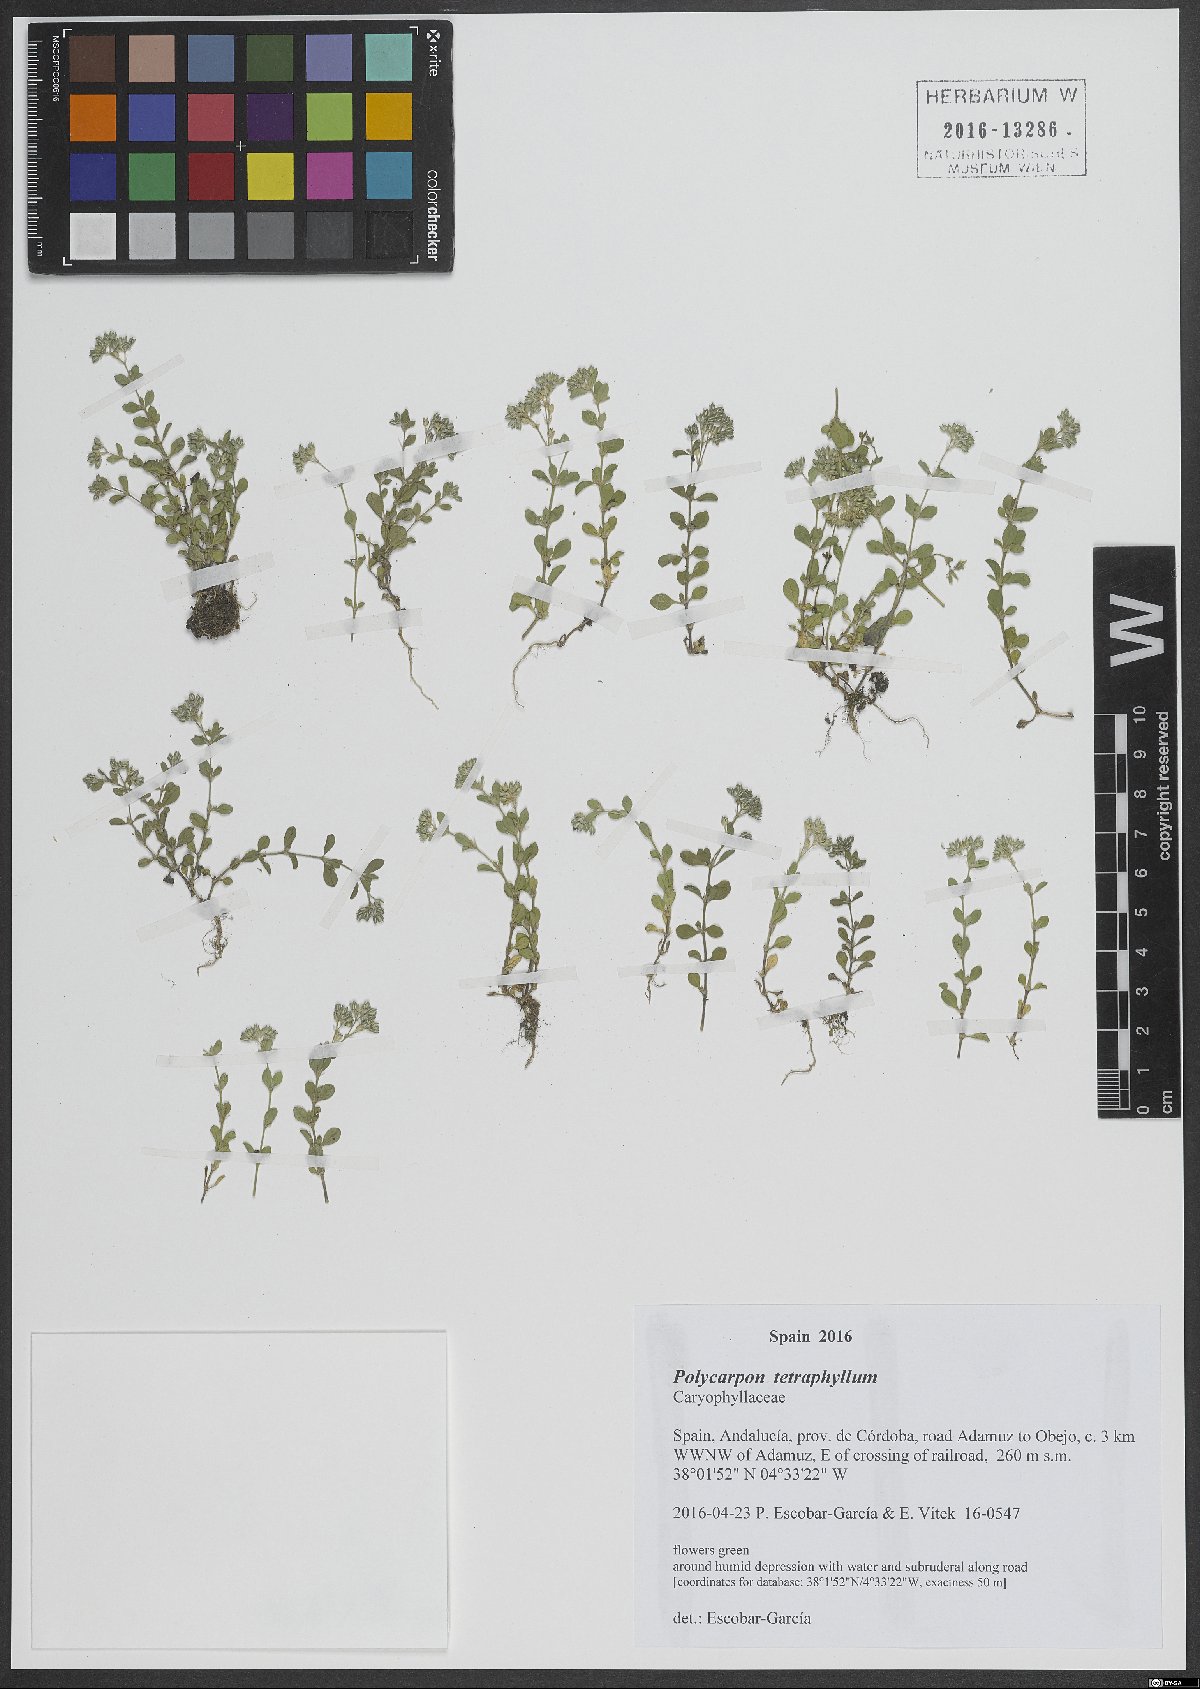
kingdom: Plantae
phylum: Tracheophyta
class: Magnoliopsida
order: Caryophyllales
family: Caryophyllaceae
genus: Polycarpon
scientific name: Polycarpon tetraphyllum
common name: Four-leaved all-seed
